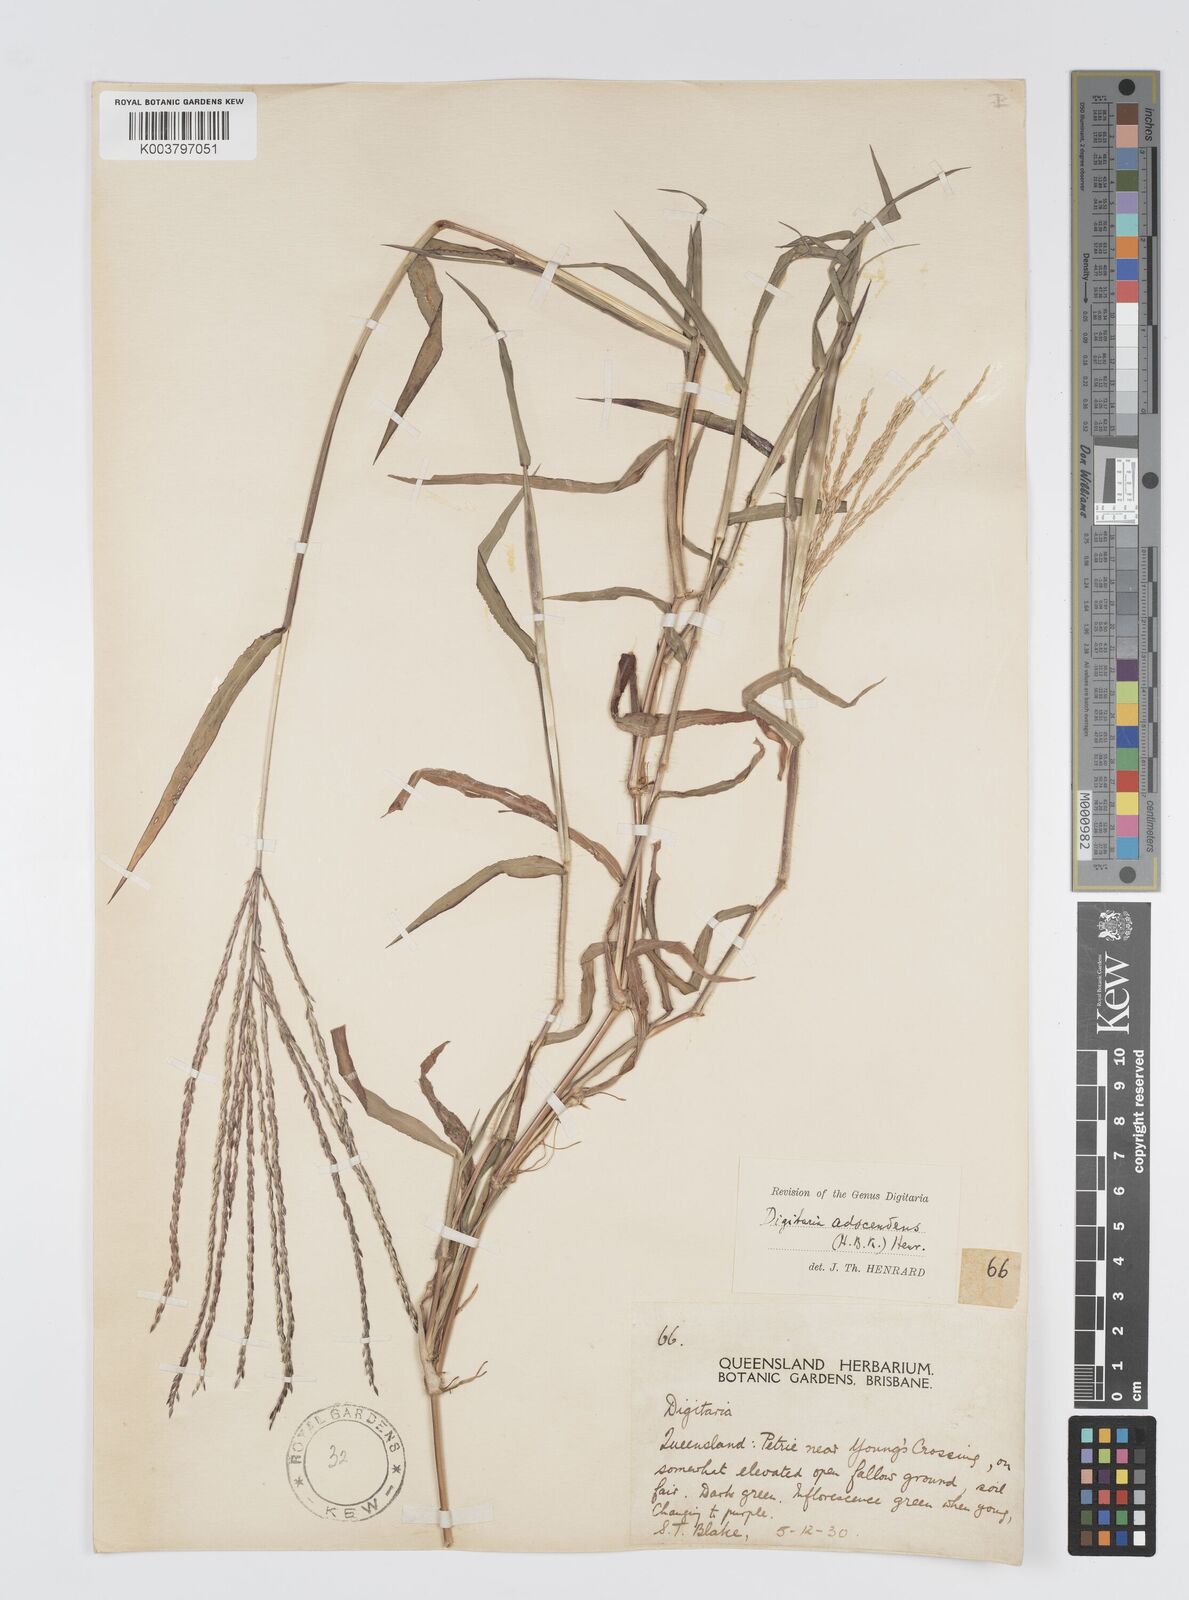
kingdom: Plantae
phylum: Tracheophyta
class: Liliopsida
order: Poales
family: Poaceae
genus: Digitaria
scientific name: Digitaria ciliaris
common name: Tropical finger-grass
